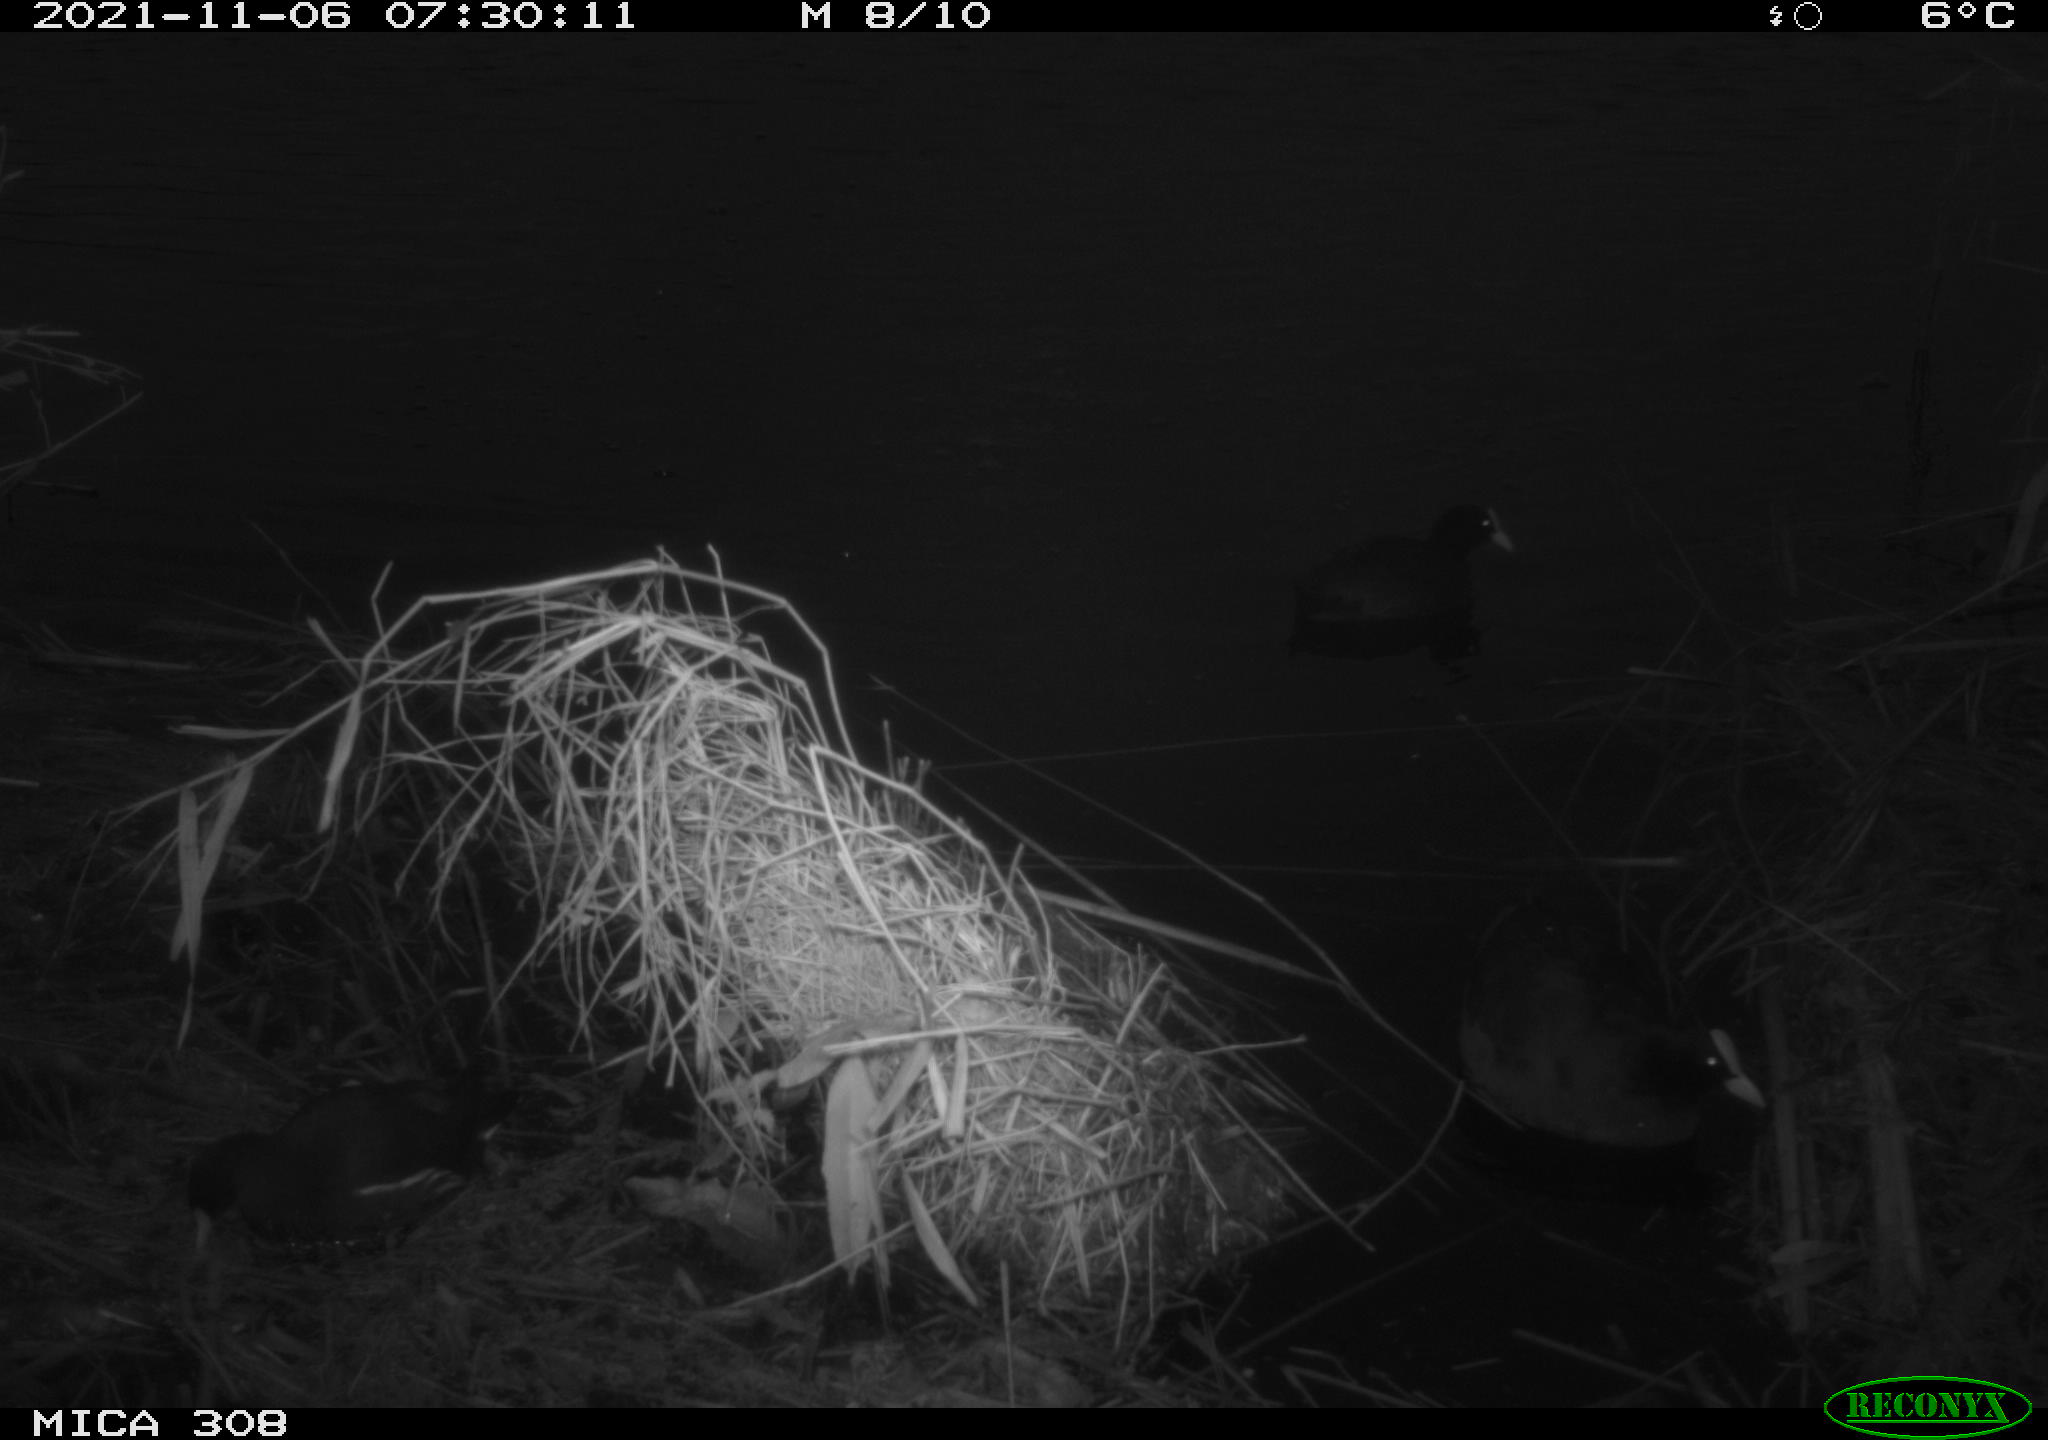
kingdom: Animalia
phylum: Chordata
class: Aves
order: Gruiformes
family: Rallidae
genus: Gallinula
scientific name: Gallinula chloropus
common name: Common moorhen
